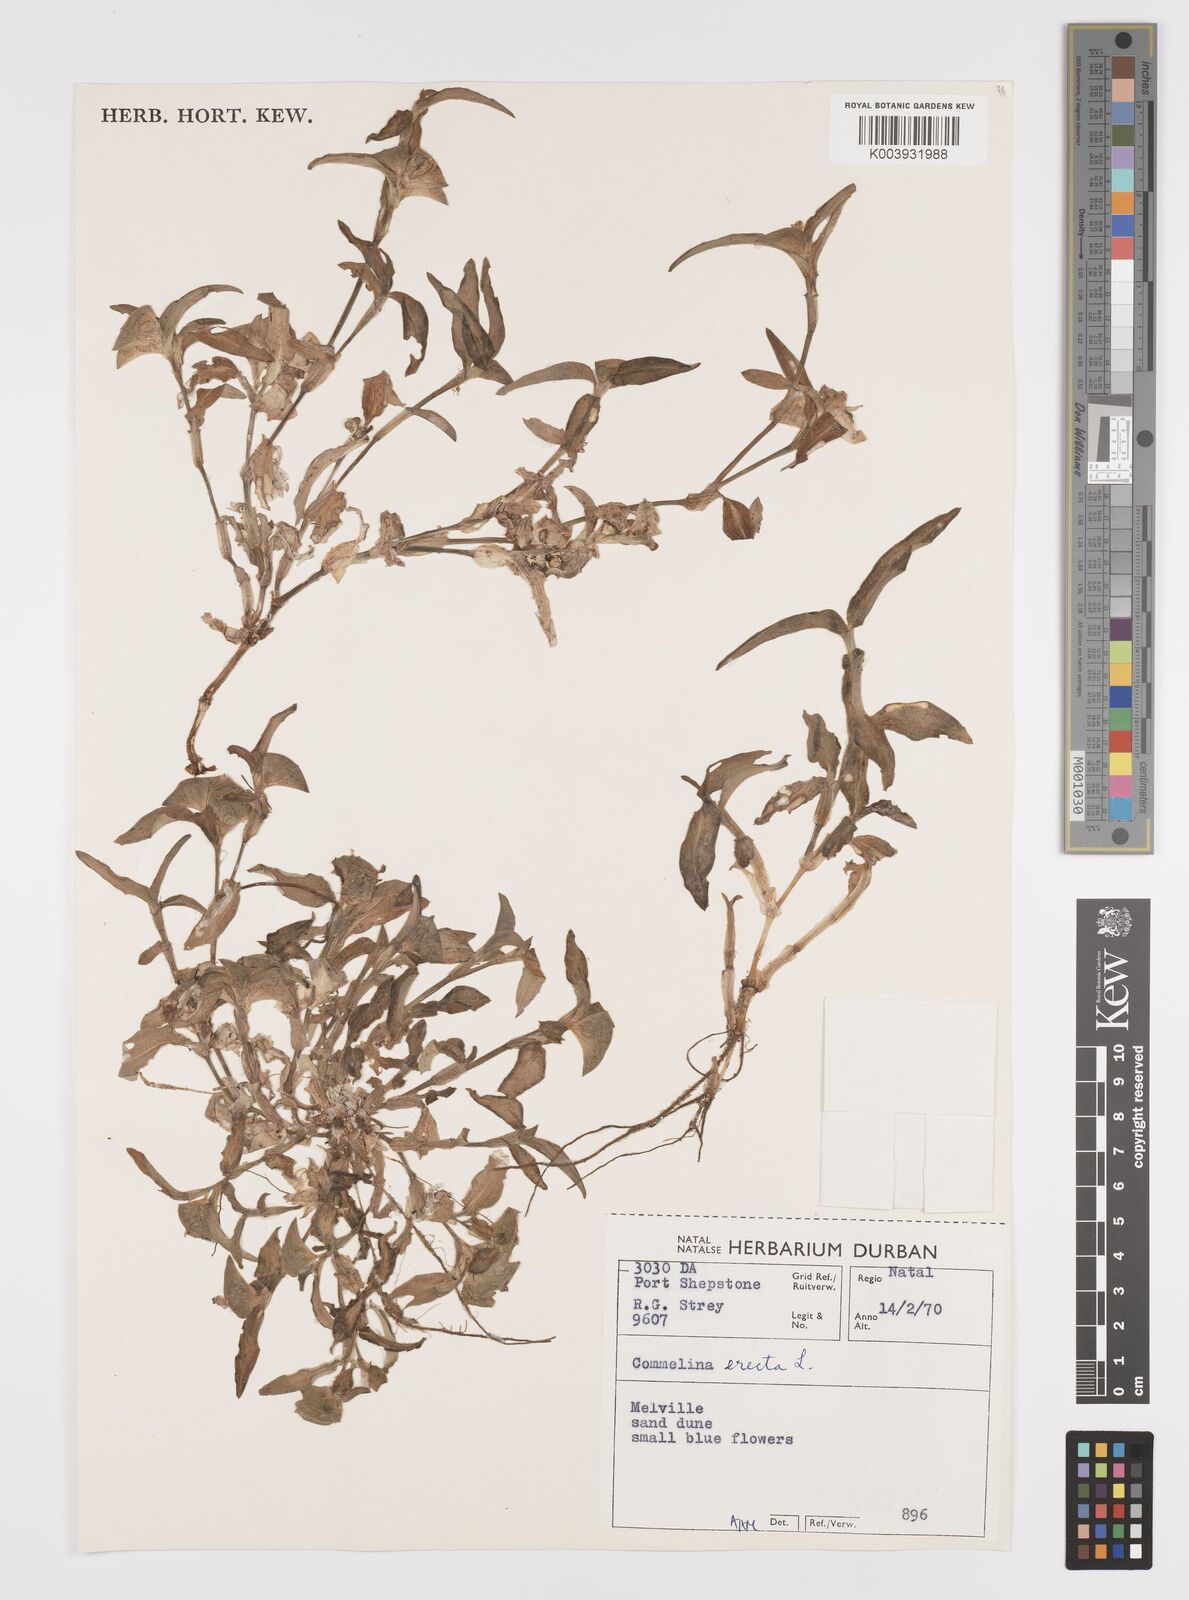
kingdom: Plantae
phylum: Tracheophyta
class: Liliopsida
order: Commelinales
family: Commelinaceae
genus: Commelina
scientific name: Commelina erecta
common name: Blousel blommetjie
